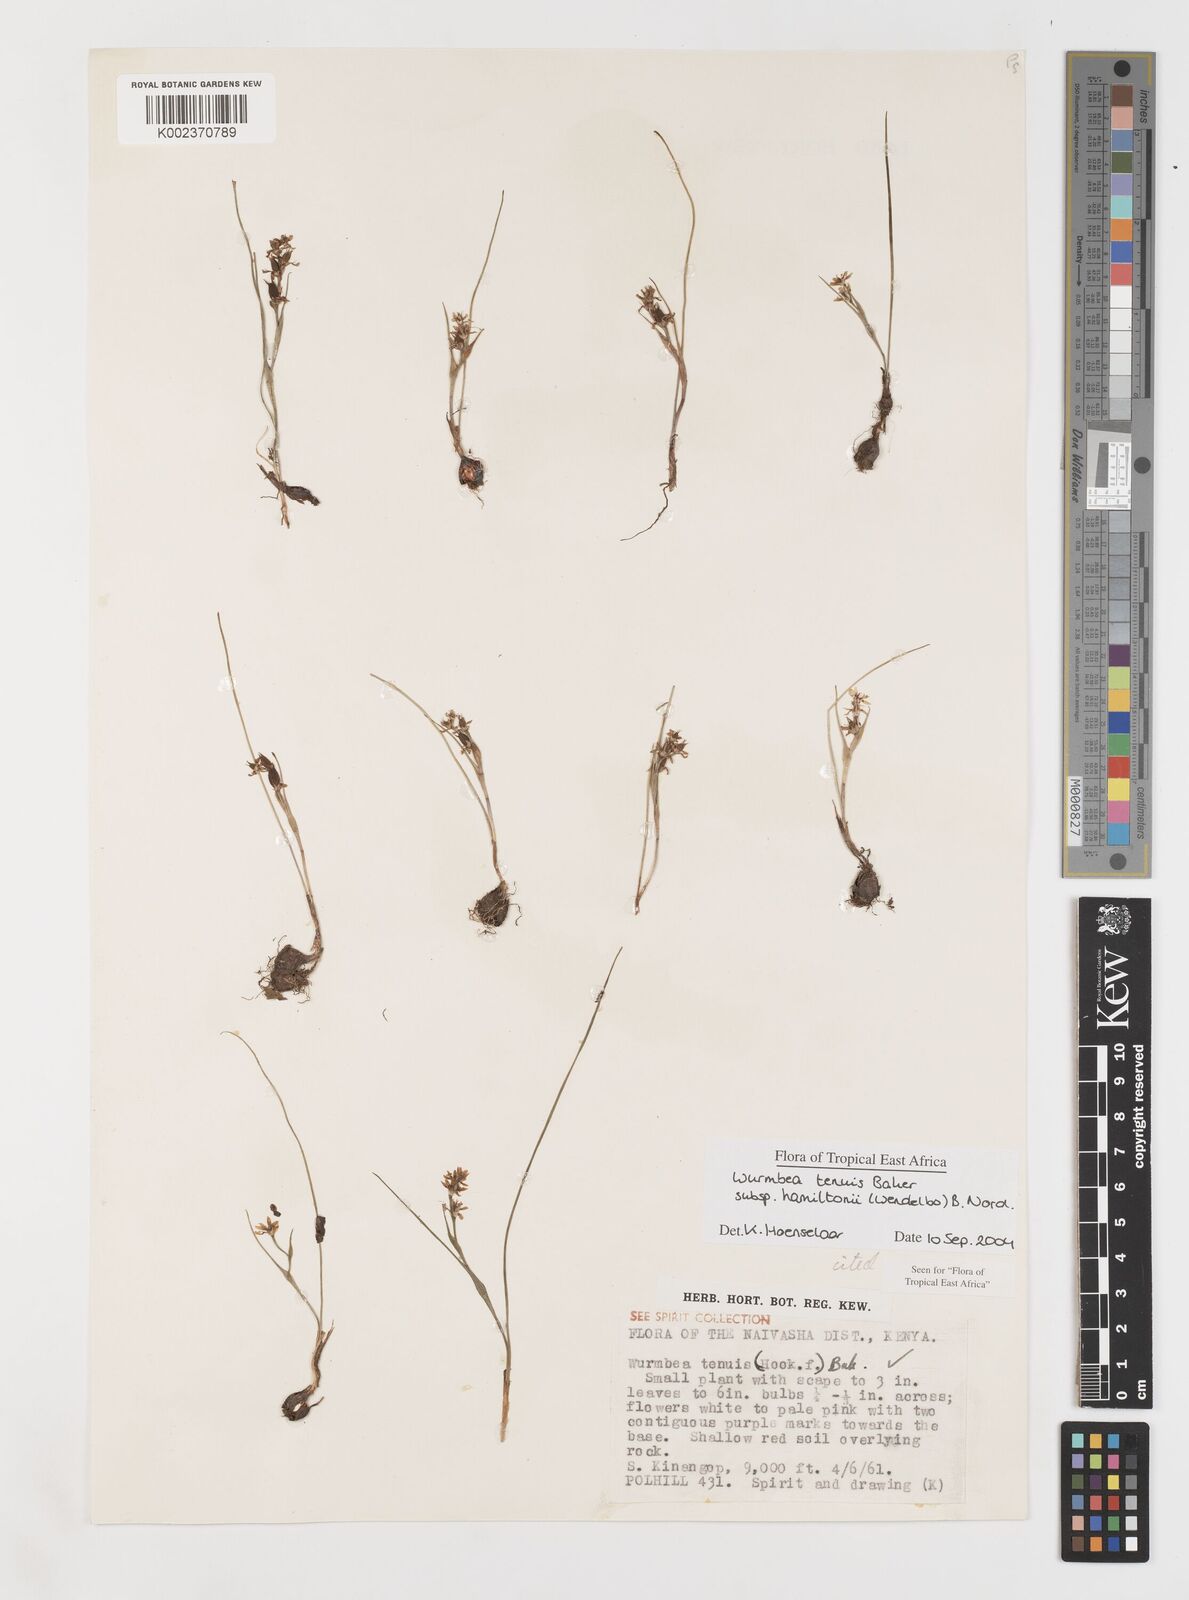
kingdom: Plantae
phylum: Tracheophyta
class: Liliopsida
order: Liliales
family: Colchicaceae
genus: Wurmbea
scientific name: Wurmbea tenuis
